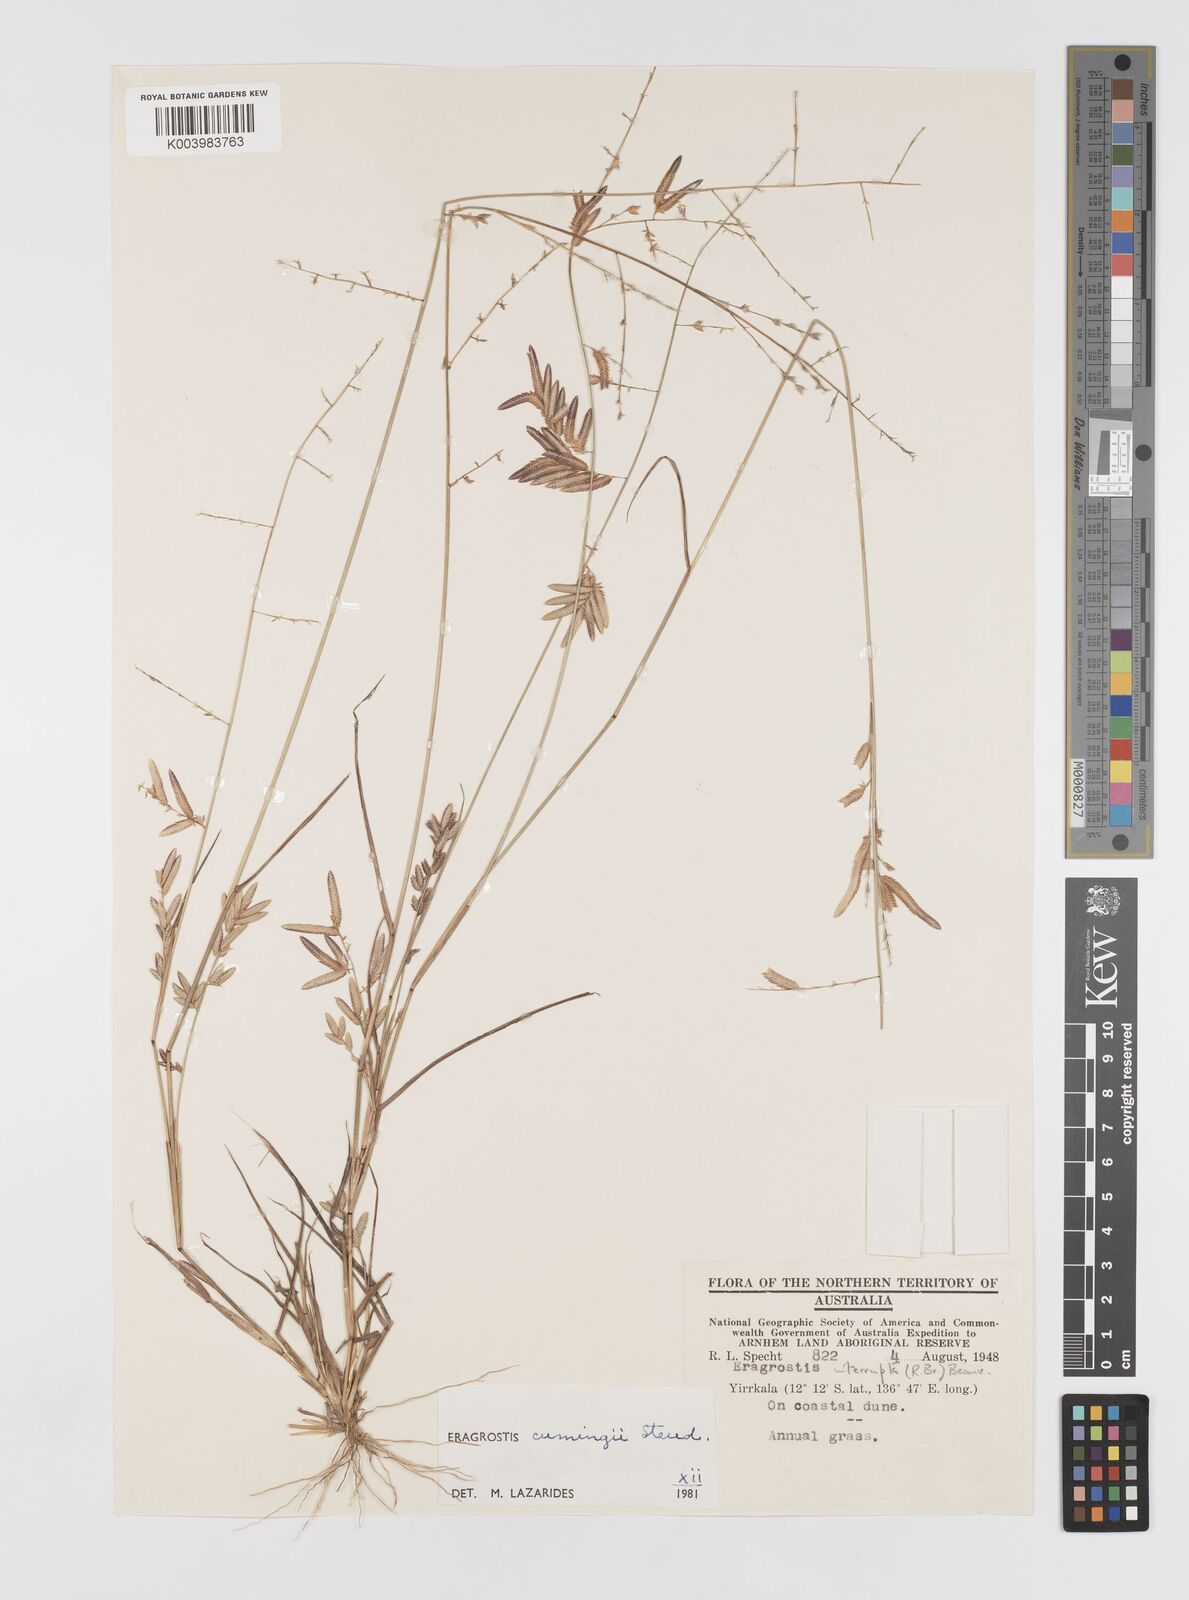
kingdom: Plantae
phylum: Tracheophyta
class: Liliopsida
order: Poales
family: Poaceae
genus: Eragrostis
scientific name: Eragrostis cumingii
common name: Cuming's lovegrass
